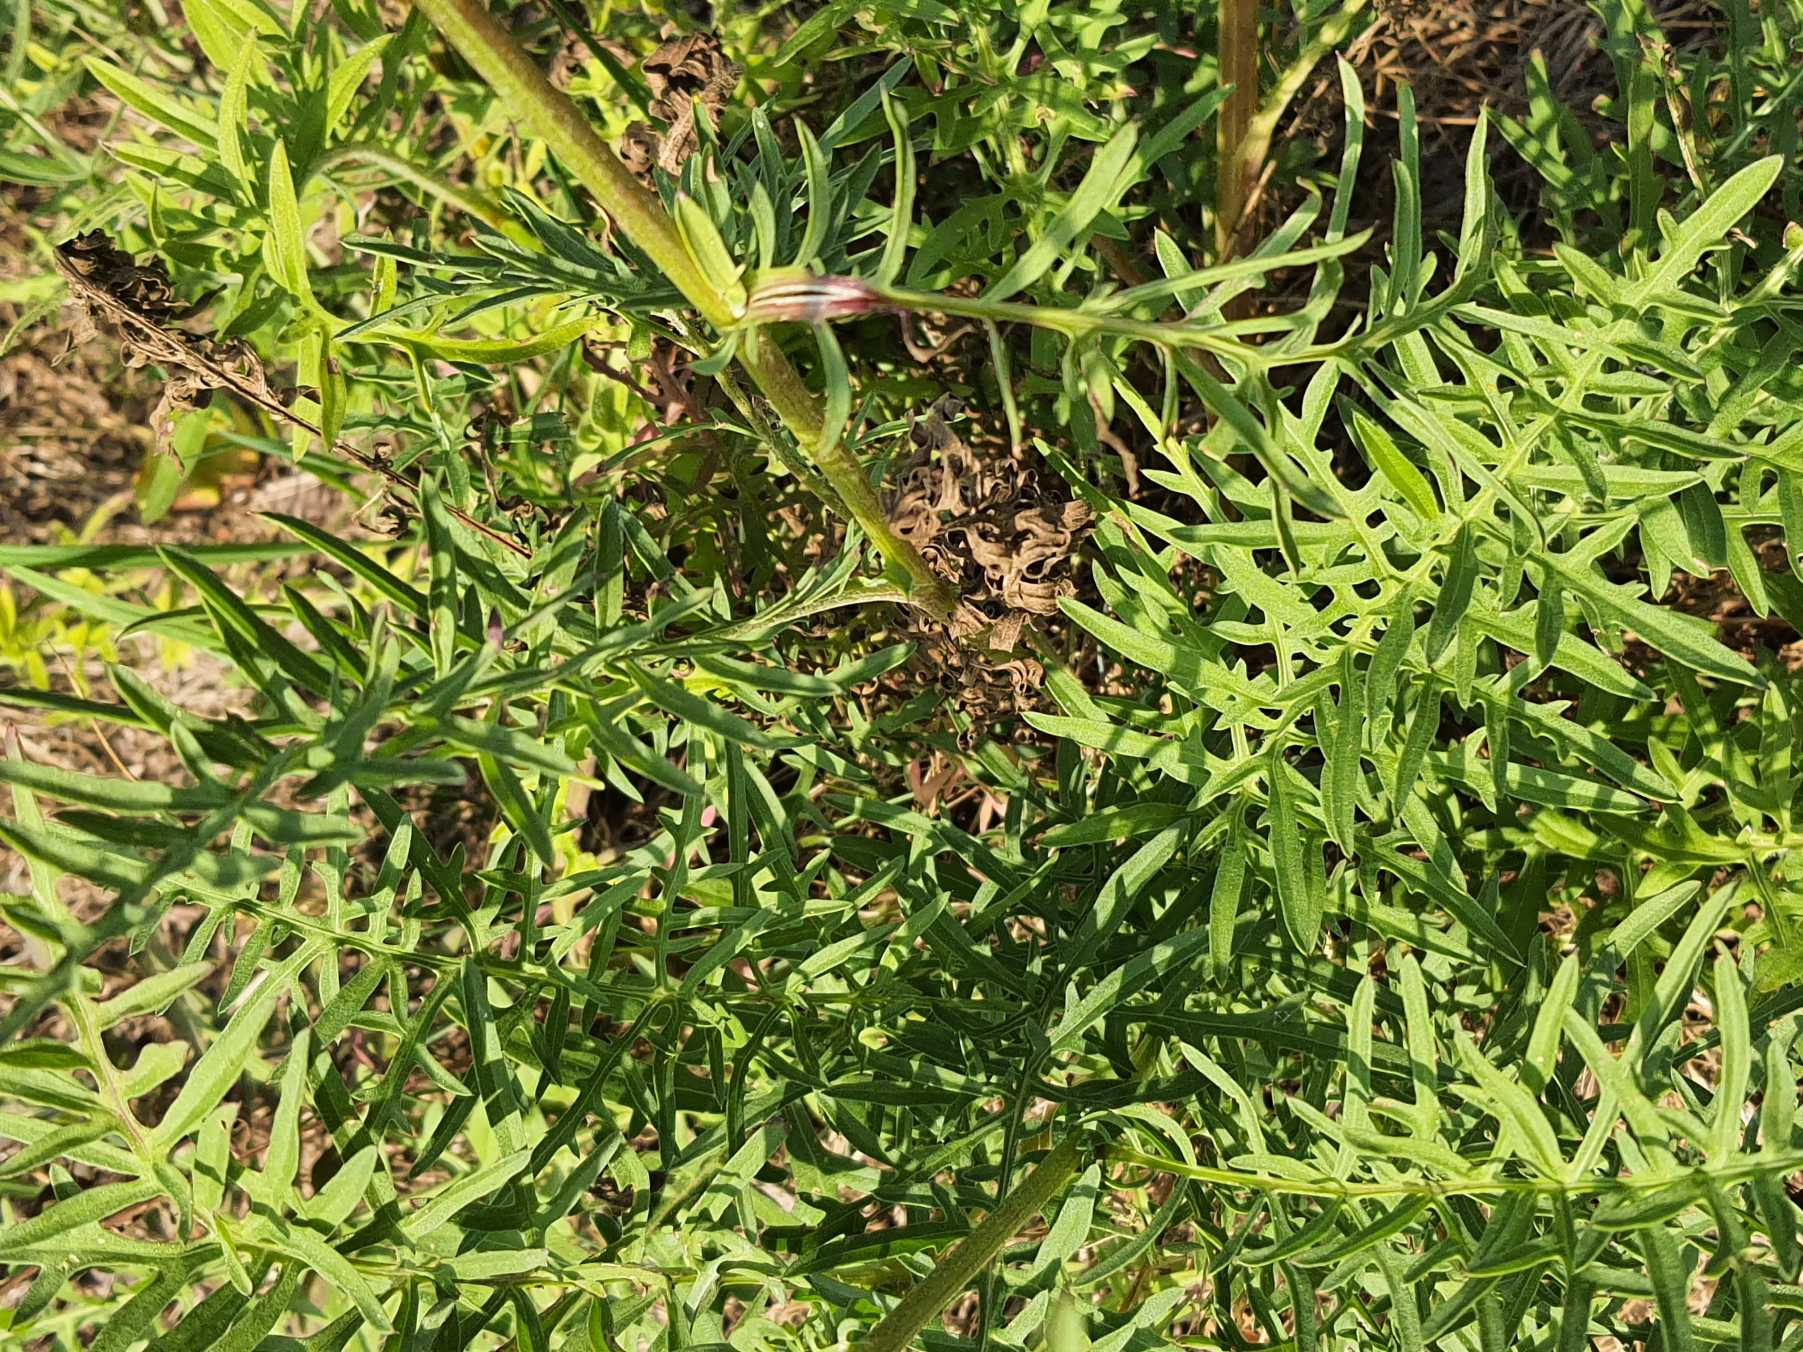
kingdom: Plantae
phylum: Tracheophyta
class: Magnoliopsida
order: Asterales
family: Asteraceae
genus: Centaurea
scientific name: Centaurea scabiosa
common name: Stor knopurt
